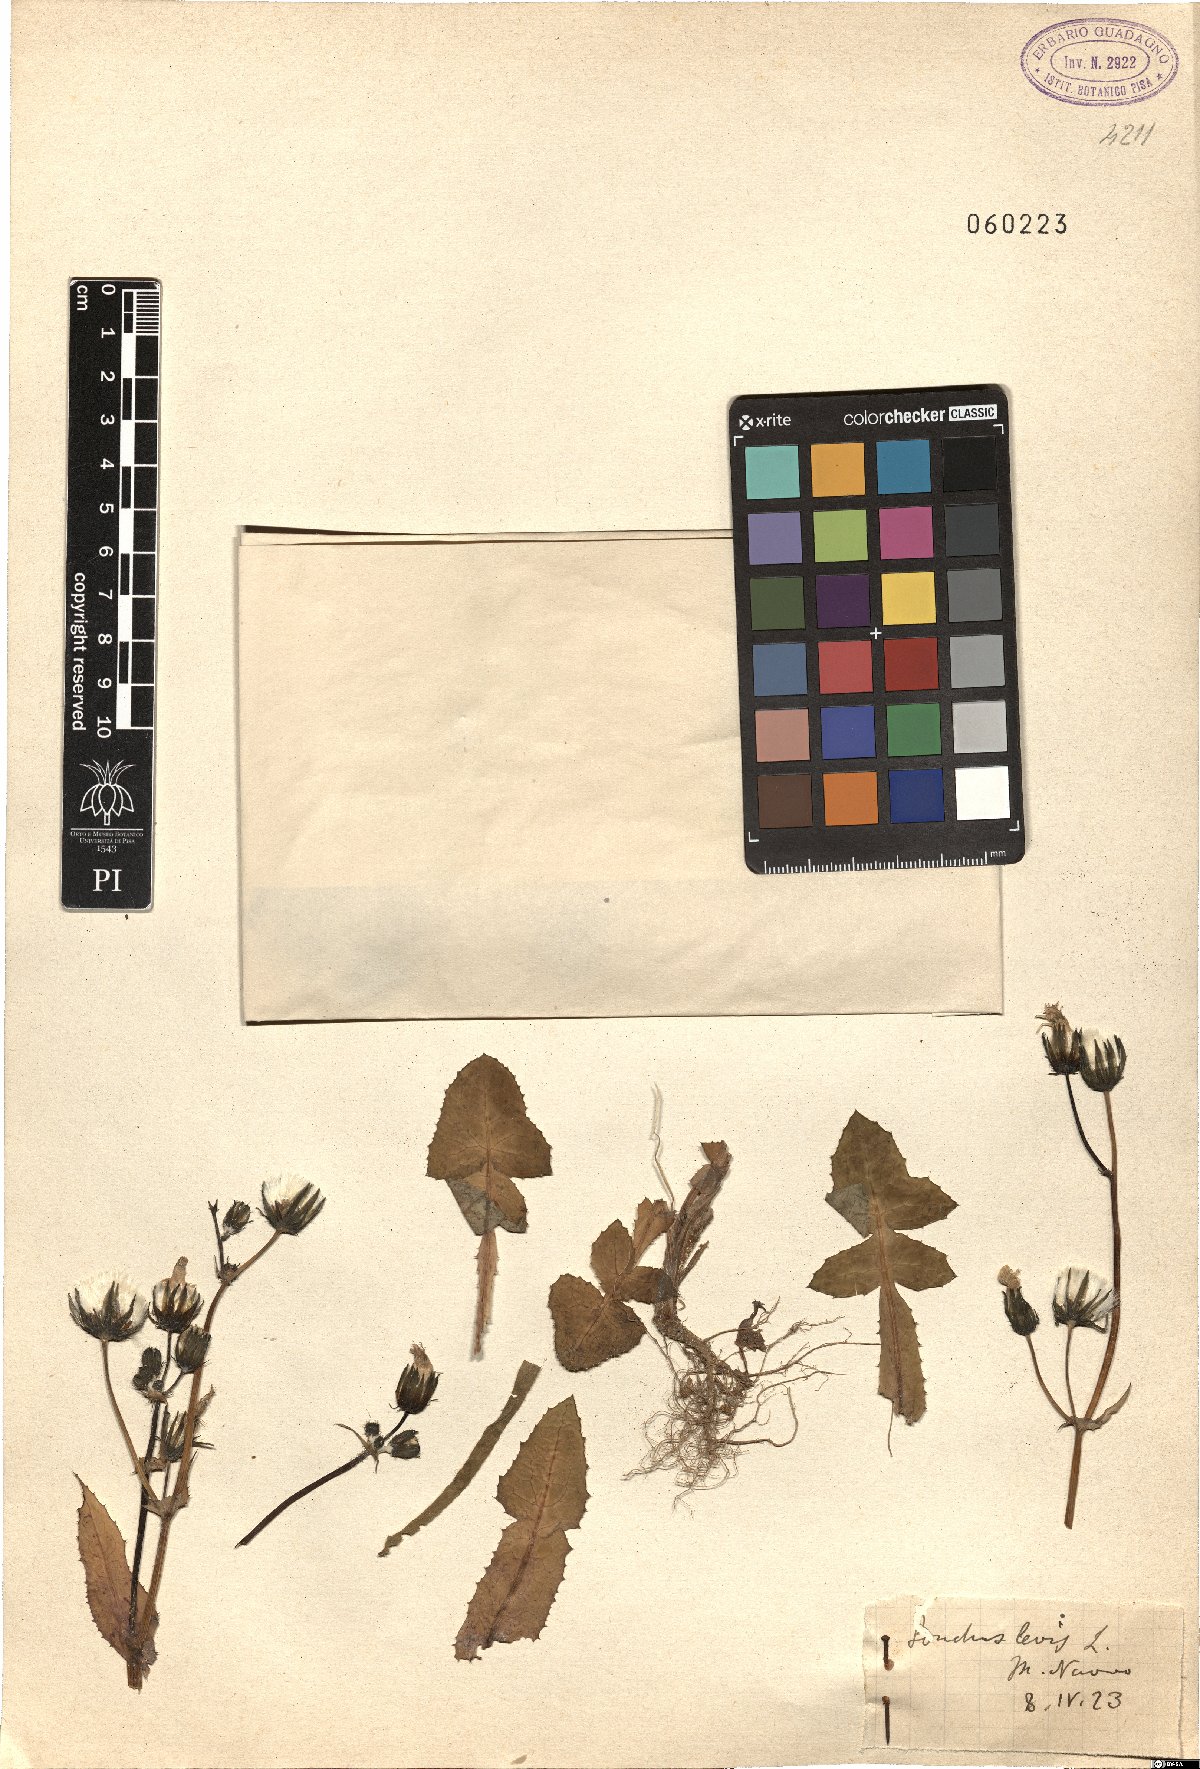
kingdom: Plantae
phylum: Tracheophyta
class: Magnoliopsida
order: Asterales
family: Asteraceae
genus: Sonchus
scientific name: Sonchus laevis
